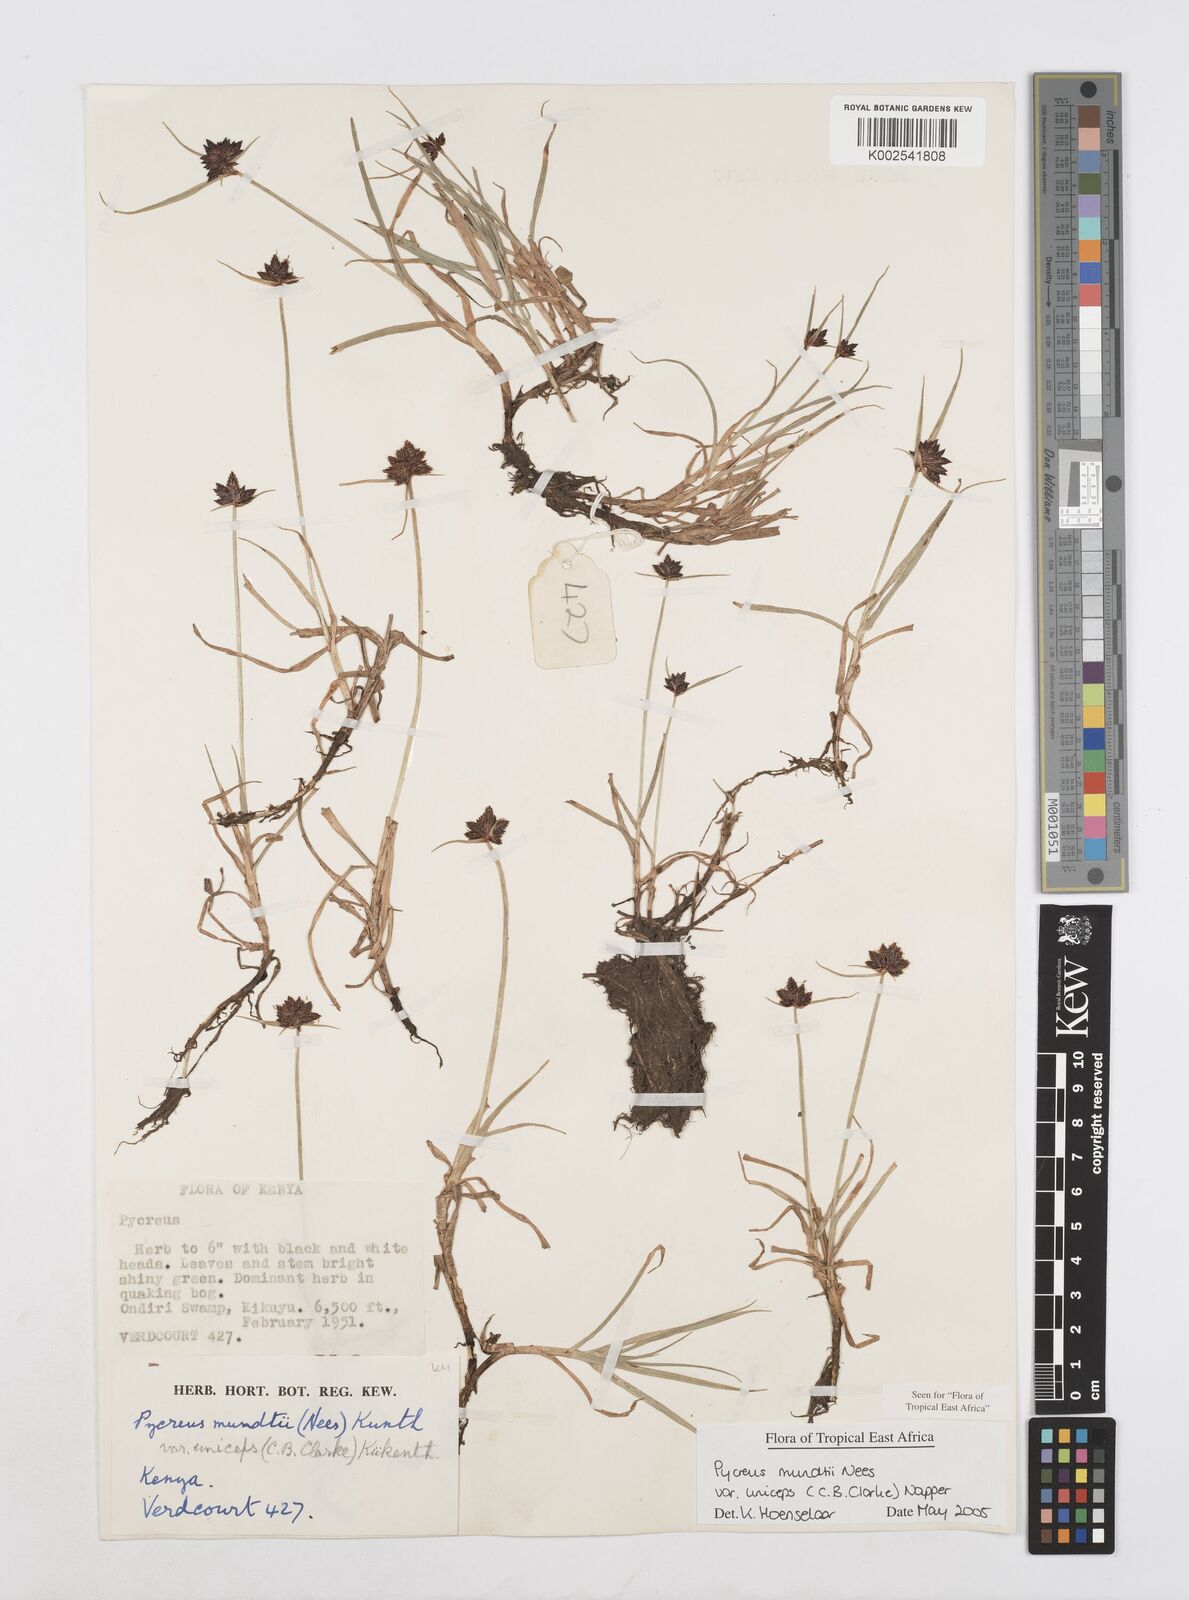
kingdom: Plantae
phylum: Tracheophyta
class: Liliopsida
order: Poales
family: Cyperaceae
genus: Cyperus
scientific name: Cyperus mundii
